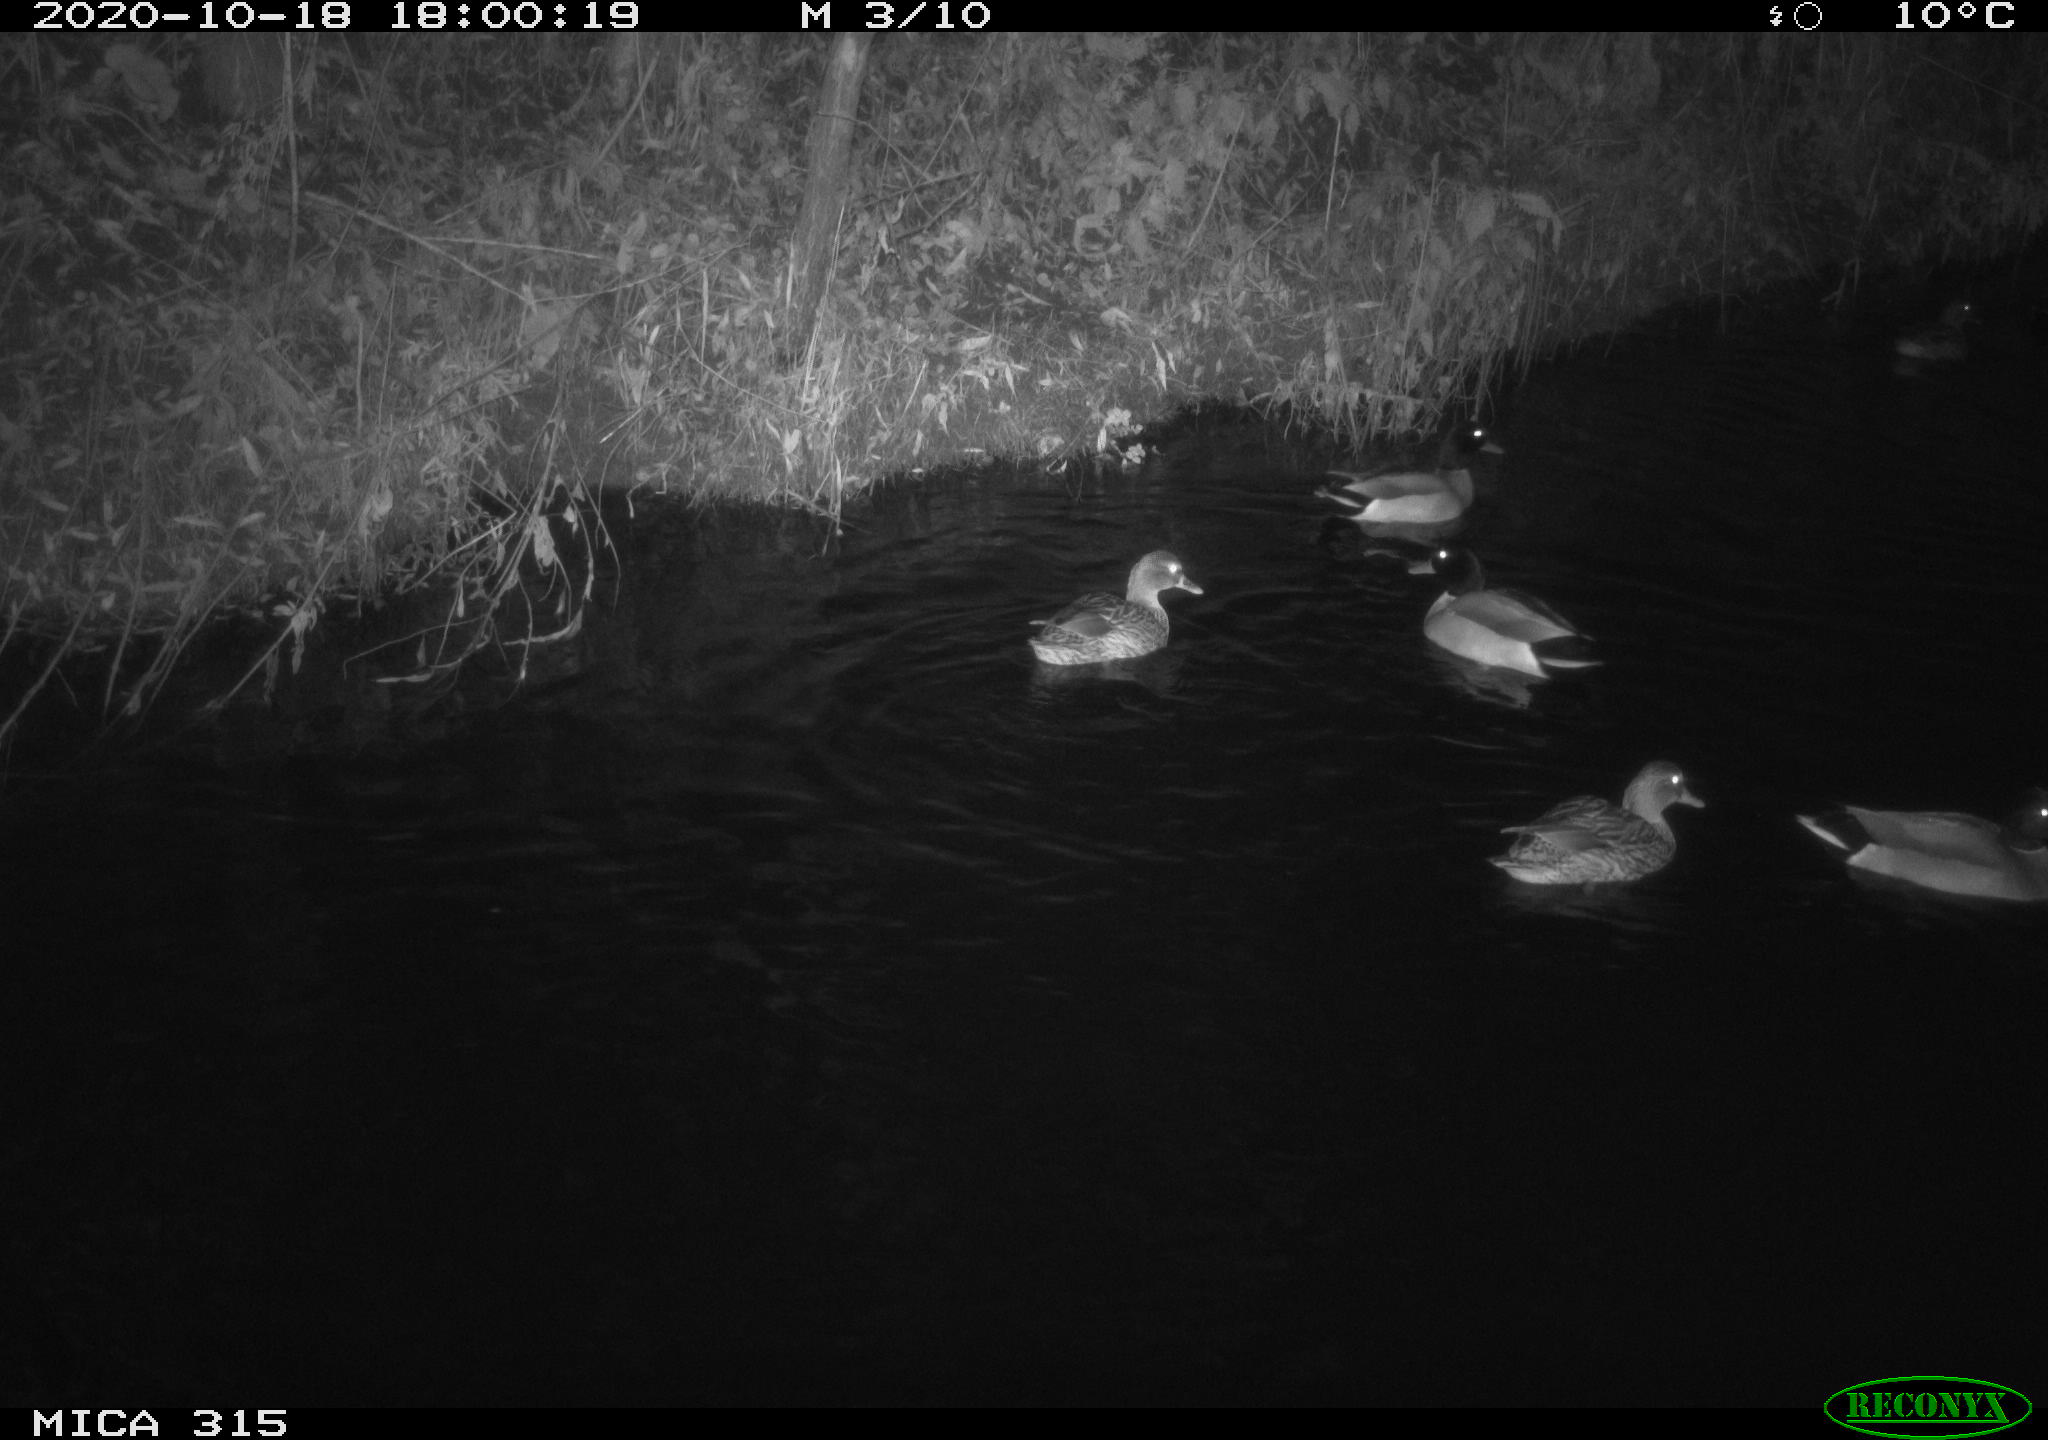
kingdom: Animalia
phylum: Chordata
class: Aves
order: Anseriformes
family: Anatidae
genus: Anas
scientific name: Anas platyrhynchos
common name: Mallard
